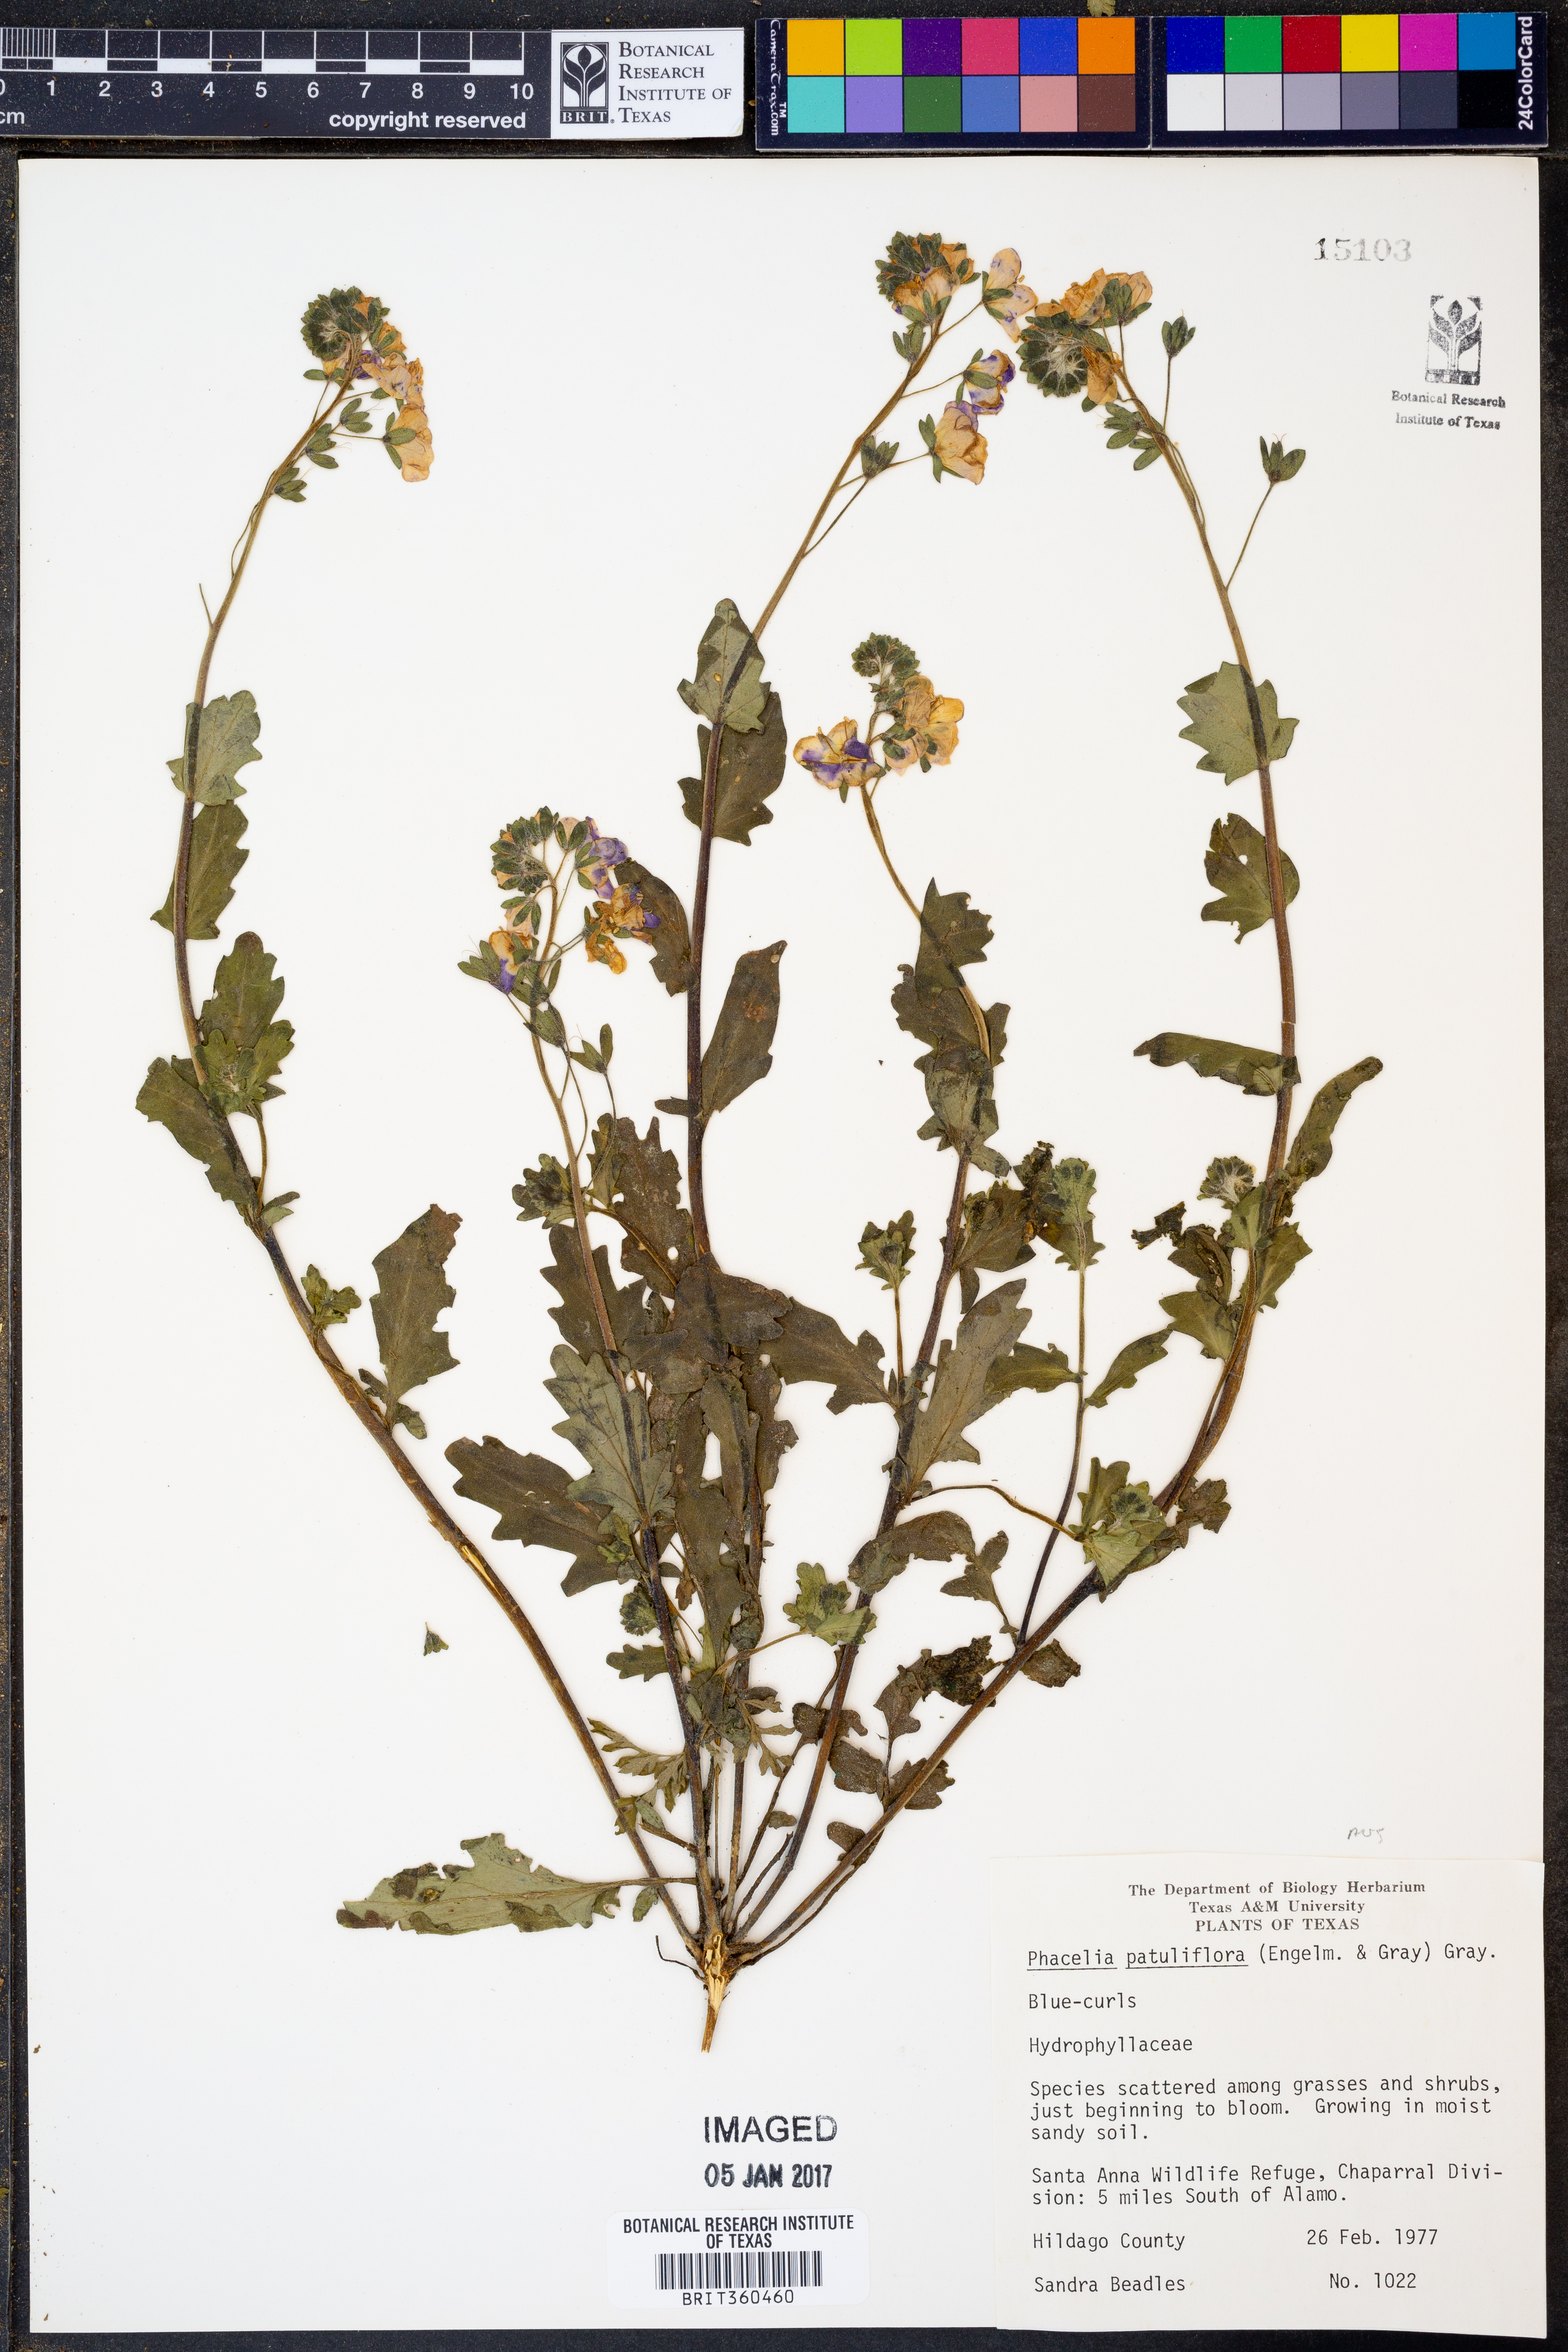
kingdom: Plantae
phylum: Tracheophyta
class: Magnoliopsida
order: Boraginales
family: Hydrophyllaceae
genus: Phacelia
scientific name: Phacelia patuliflora
